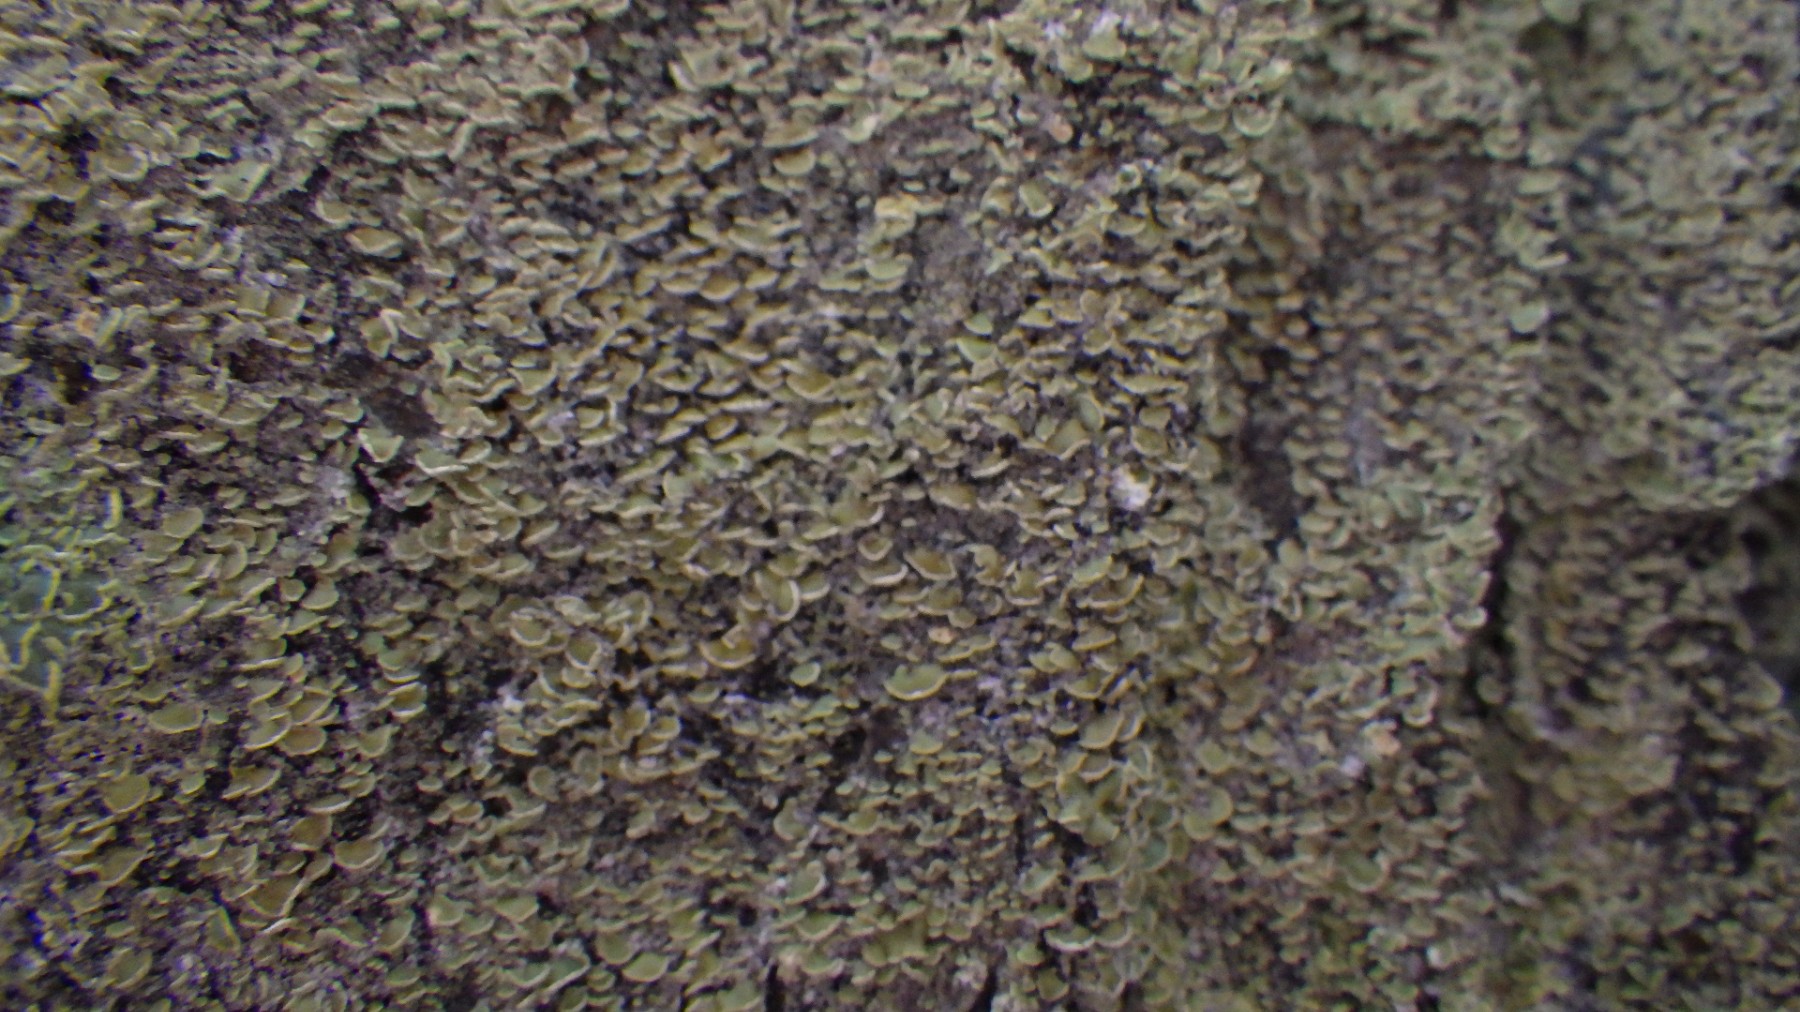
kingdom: Fungi
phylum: Ascomycota
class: Lecanoromycetes
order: Umbilicariales
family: Ophioparmaceae
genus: Hypocenomyce
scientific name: Hypocenomyce scalaris
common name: småskællet muslinglav
